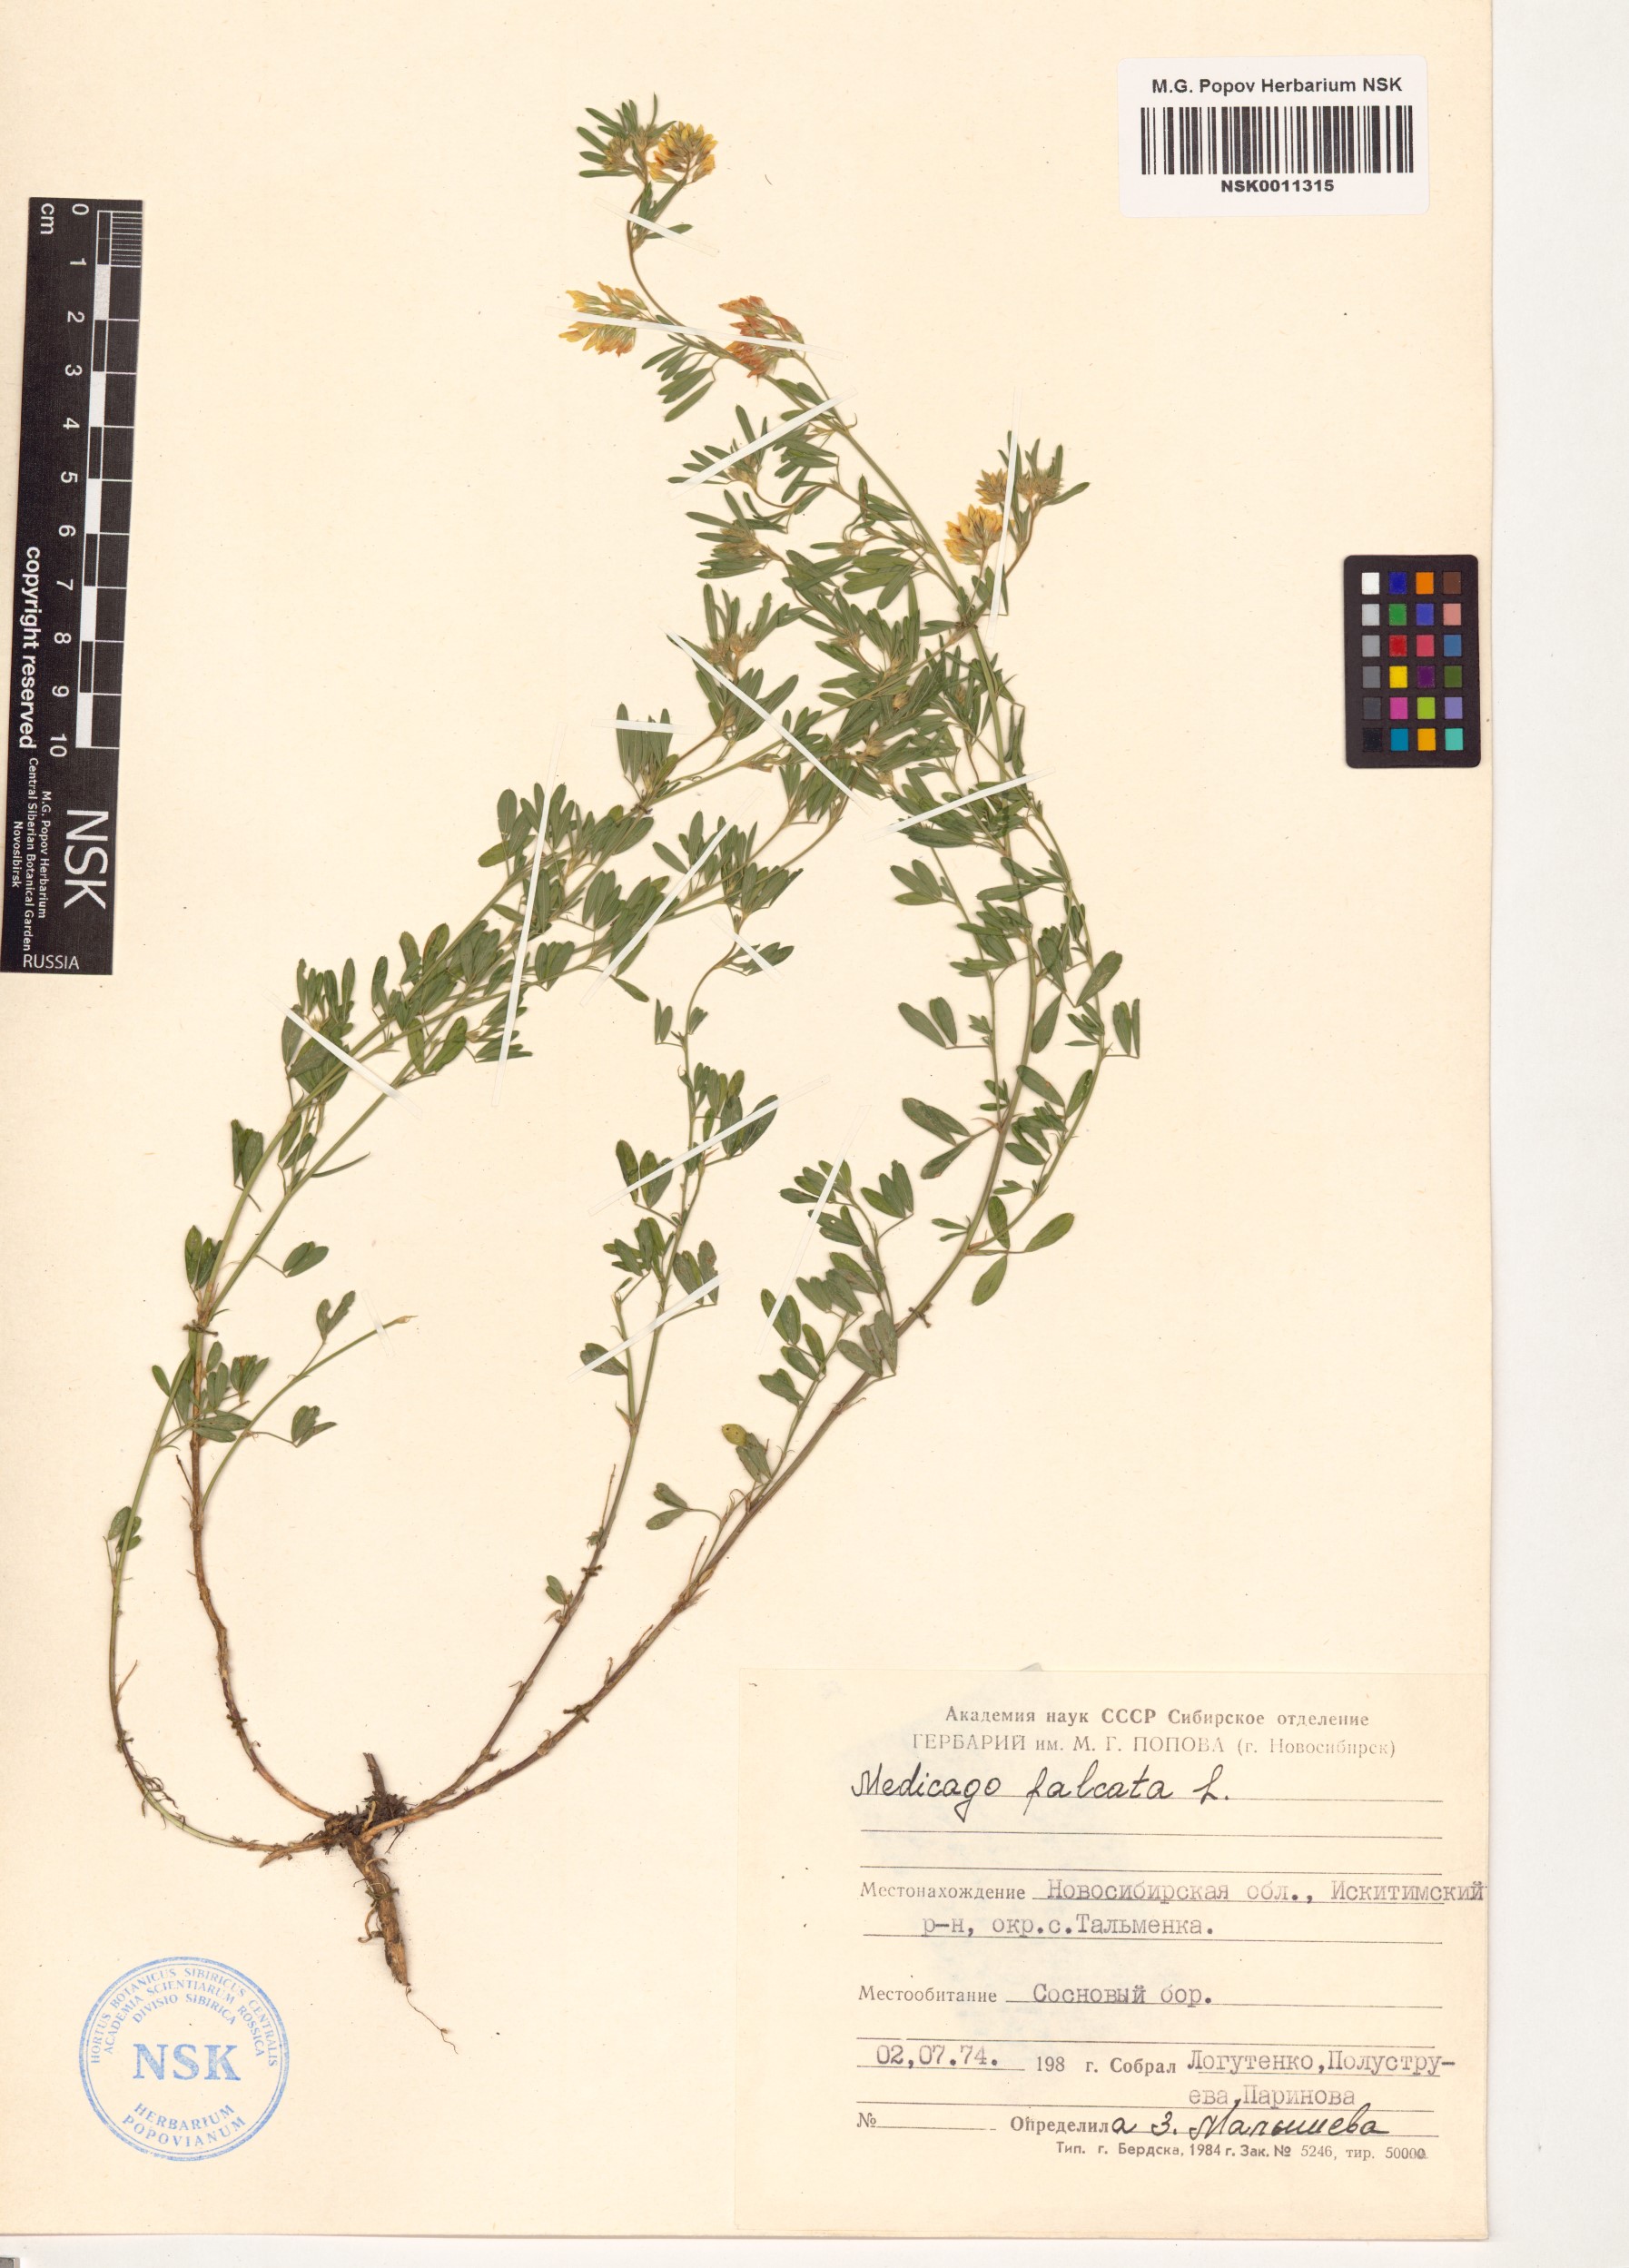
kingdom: Plantae
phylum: Tracheophyta
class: Magnoliopsida
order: Fabales
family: Fabaceae
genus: Medicago
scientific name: Medicago falcata
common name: Sickle medick
